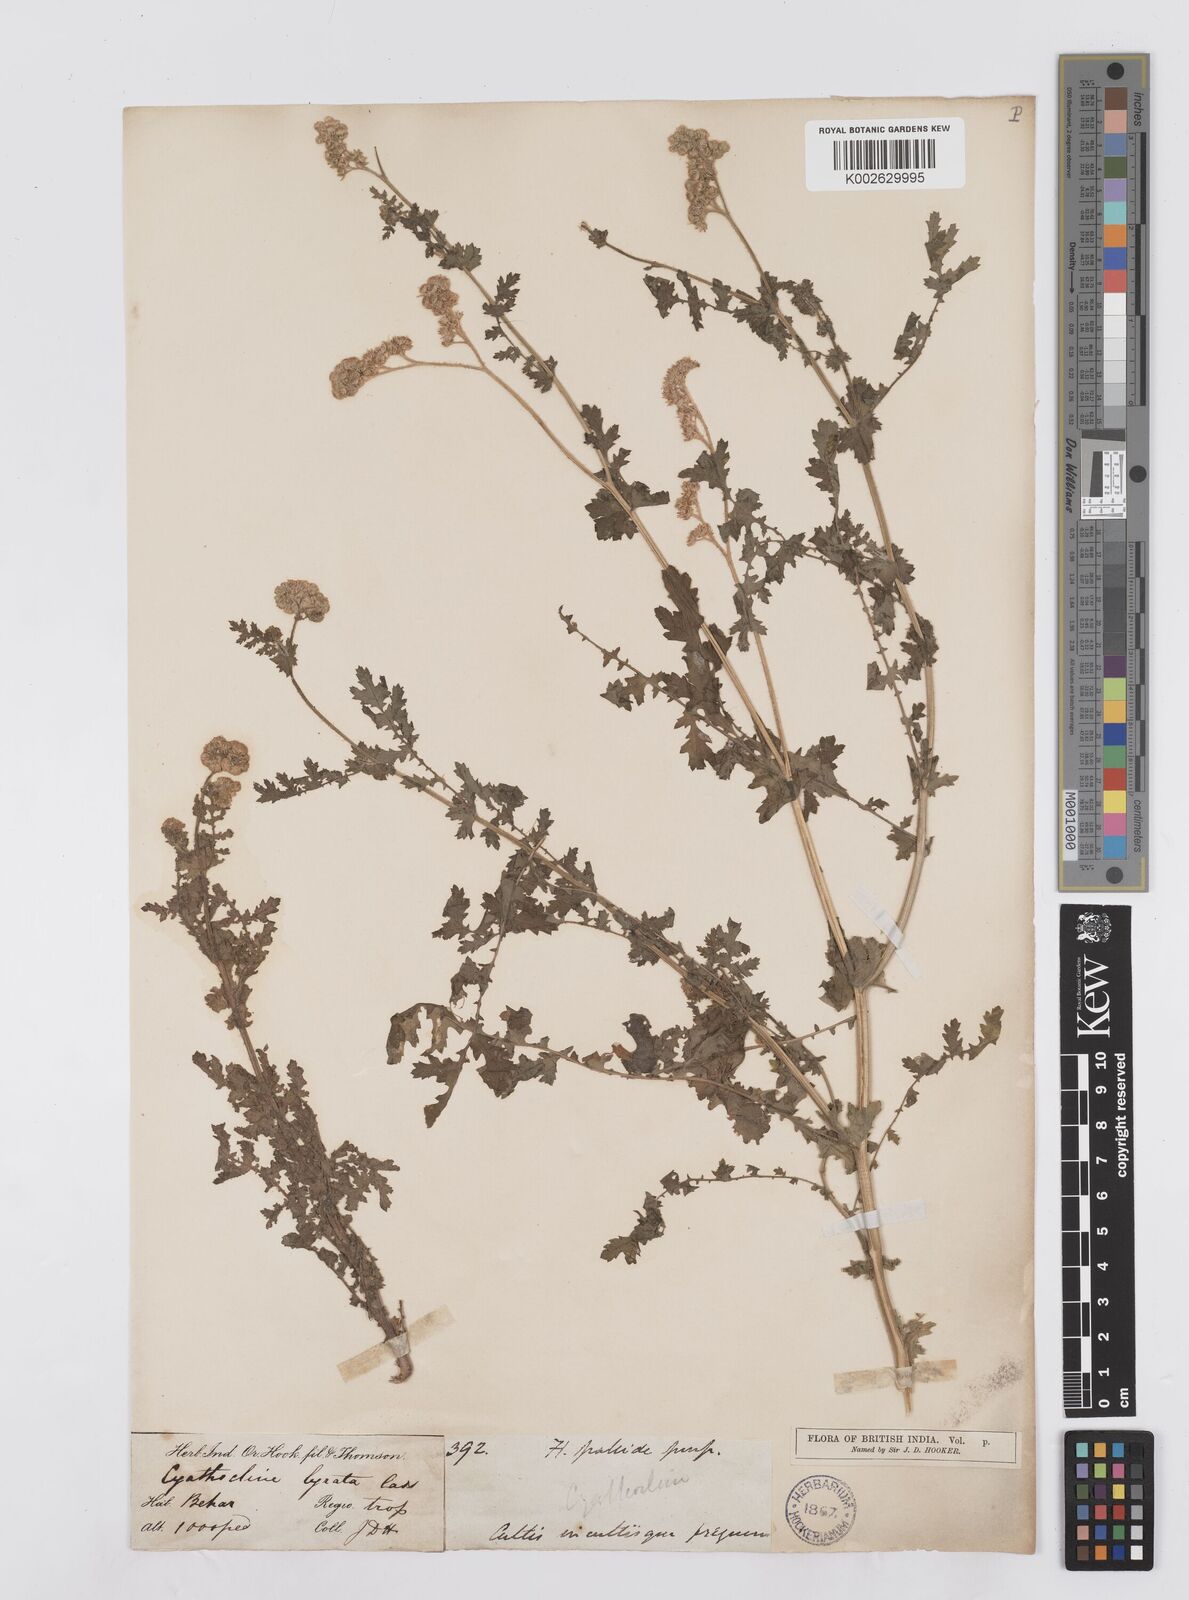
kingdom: Plantae
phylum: Tracheophyta
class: Magnoliopsida
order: Asterales
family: Asteraceae
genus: Cyathocline
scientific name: Cyathocline purpurea
